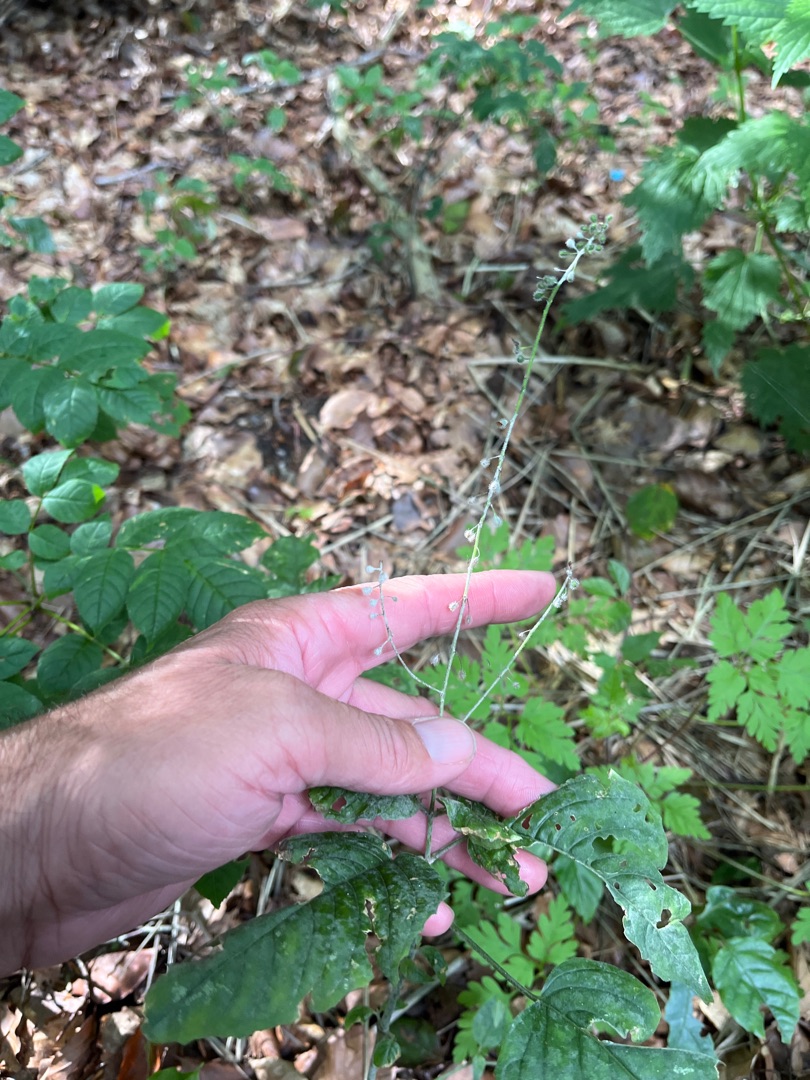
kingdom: Plantae
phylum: Tracheophyta
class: Magnoliopsida
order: Myrtales
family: Onagraceae
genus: Circaea
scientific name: Circaea lutetiana
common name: Dunet steffensurt
